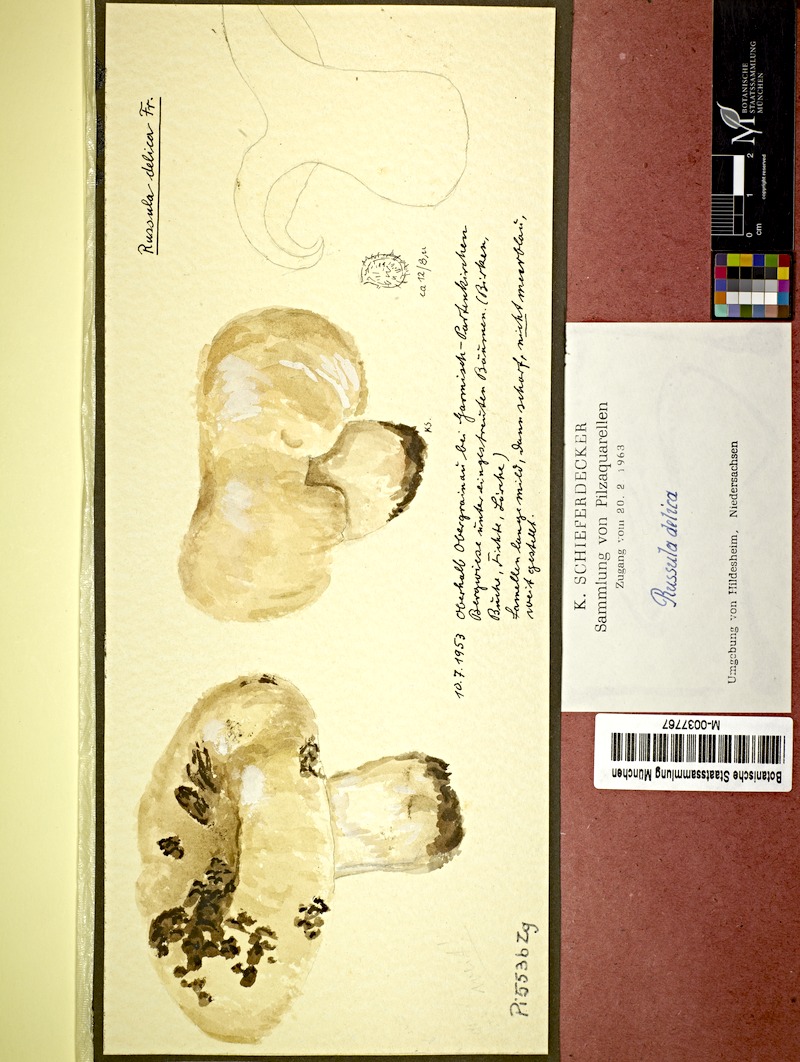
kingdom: Fungi
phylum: Basidiomycota
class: Agaricomycetes
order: Russulales
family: Russulaceae
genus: Russula
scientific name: Russula delica
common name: Milk white brittlegill
